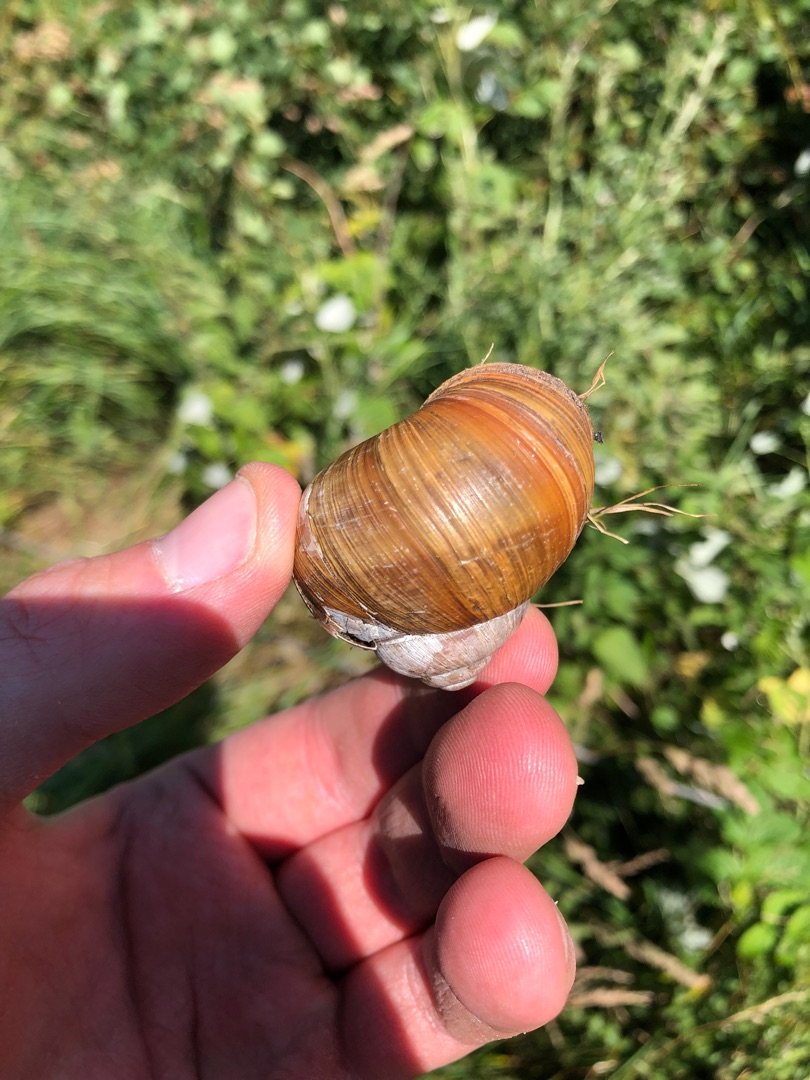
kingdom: Animalia
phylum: Mollusca
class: Gastropoda
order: Stylommatophora
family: Helicidae
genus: Helix
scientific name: Helix pomatia
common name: Vinbjergsnegl
